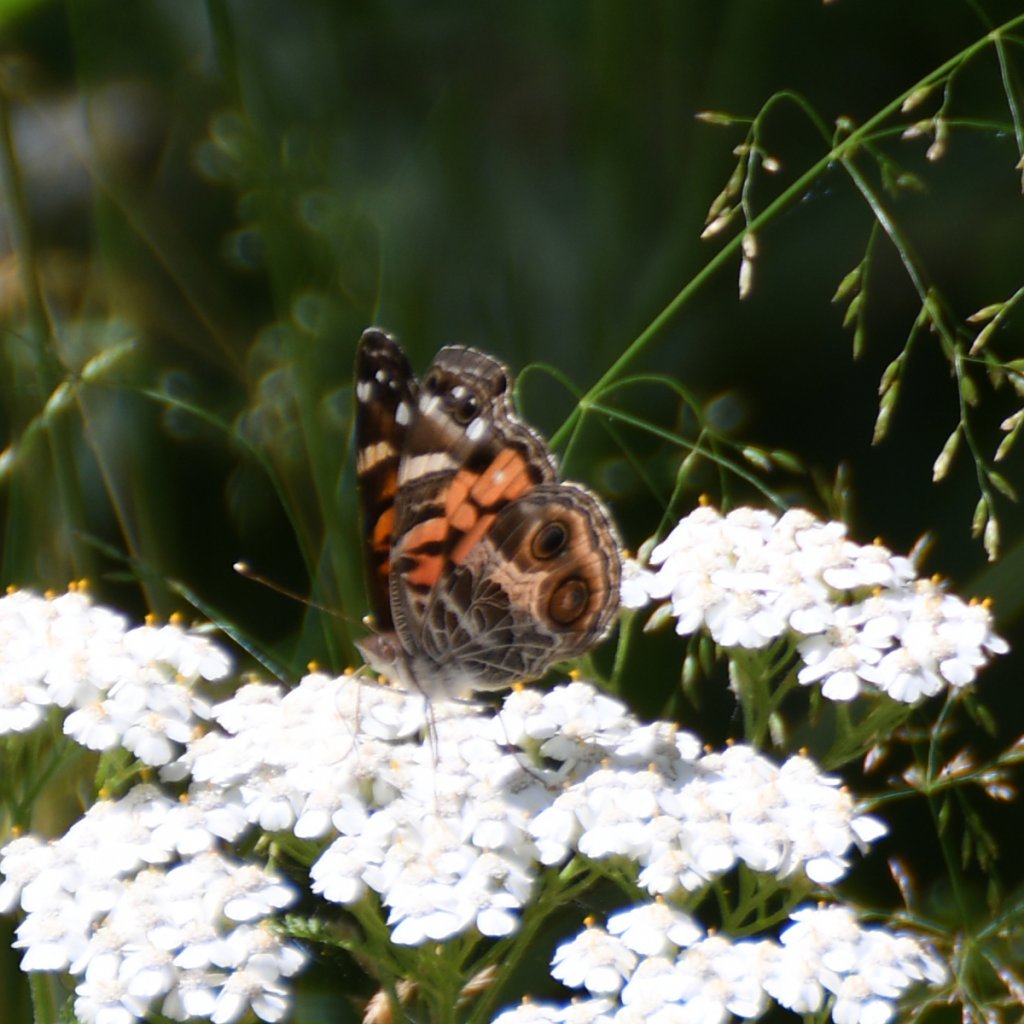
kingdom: Animalia
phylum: Arthropoda
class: Insecta
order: Lepidoptera
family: Nymphalidae
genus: Vanessa
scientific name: Vanessa virginiensis
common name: American Lady
